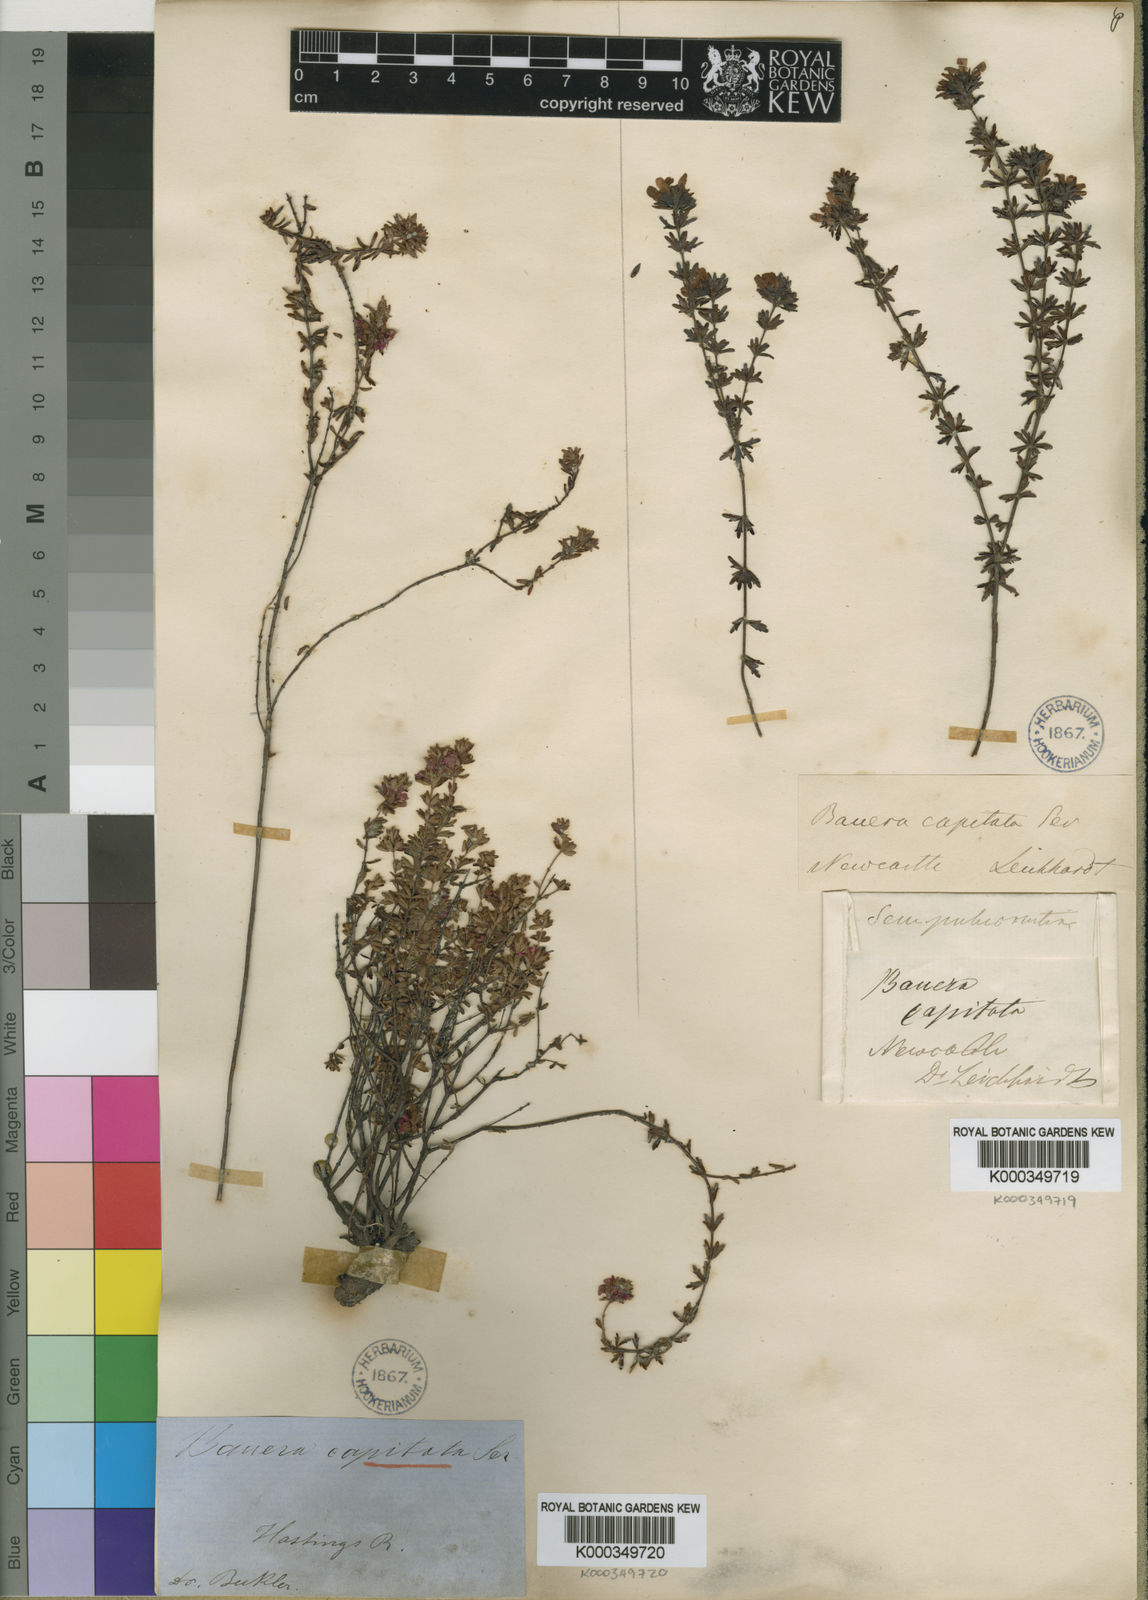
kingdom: Plantae
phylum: Tracheophyta
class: Magnoliopsida
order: Oxalidales
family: Cunoniaceae
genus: Bauera
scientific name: Bauera
